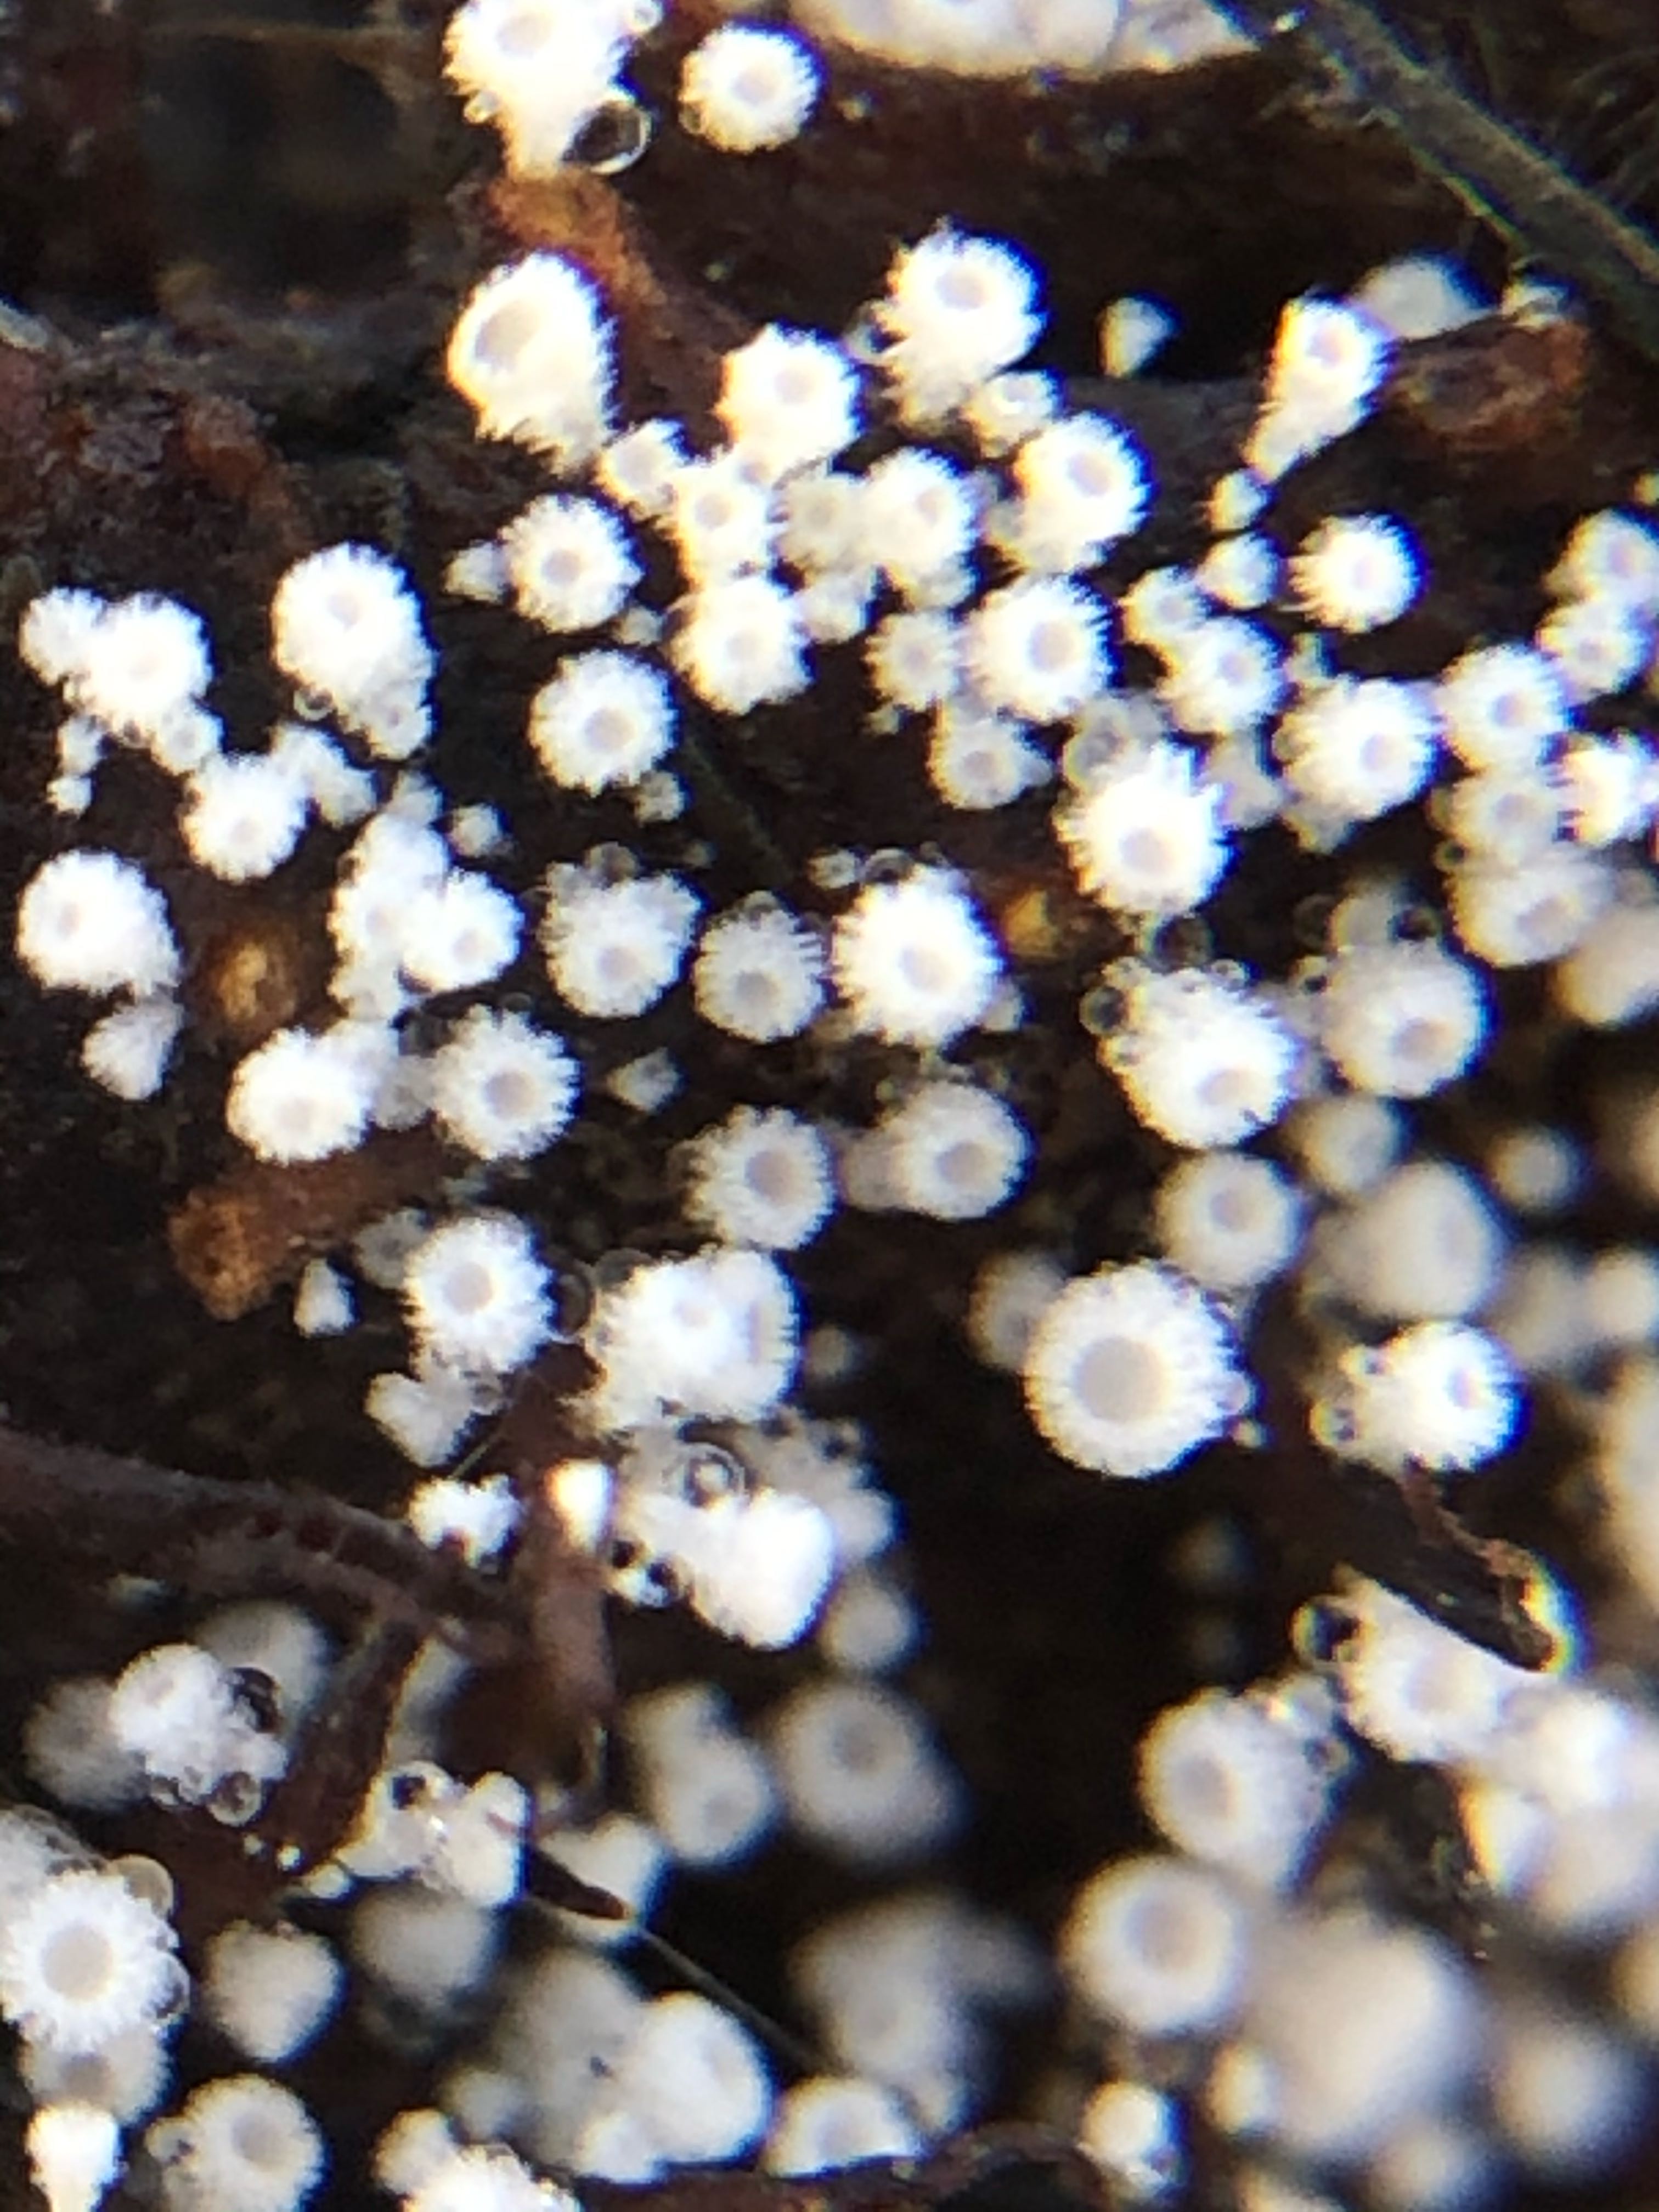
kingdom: Fungi
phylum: Ascomycota
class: Leotiomycetes
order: Helotiales
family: Lachnaceae
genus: Lachnum
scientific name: Lachnum virgineum
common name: jomfru-frynseskive
